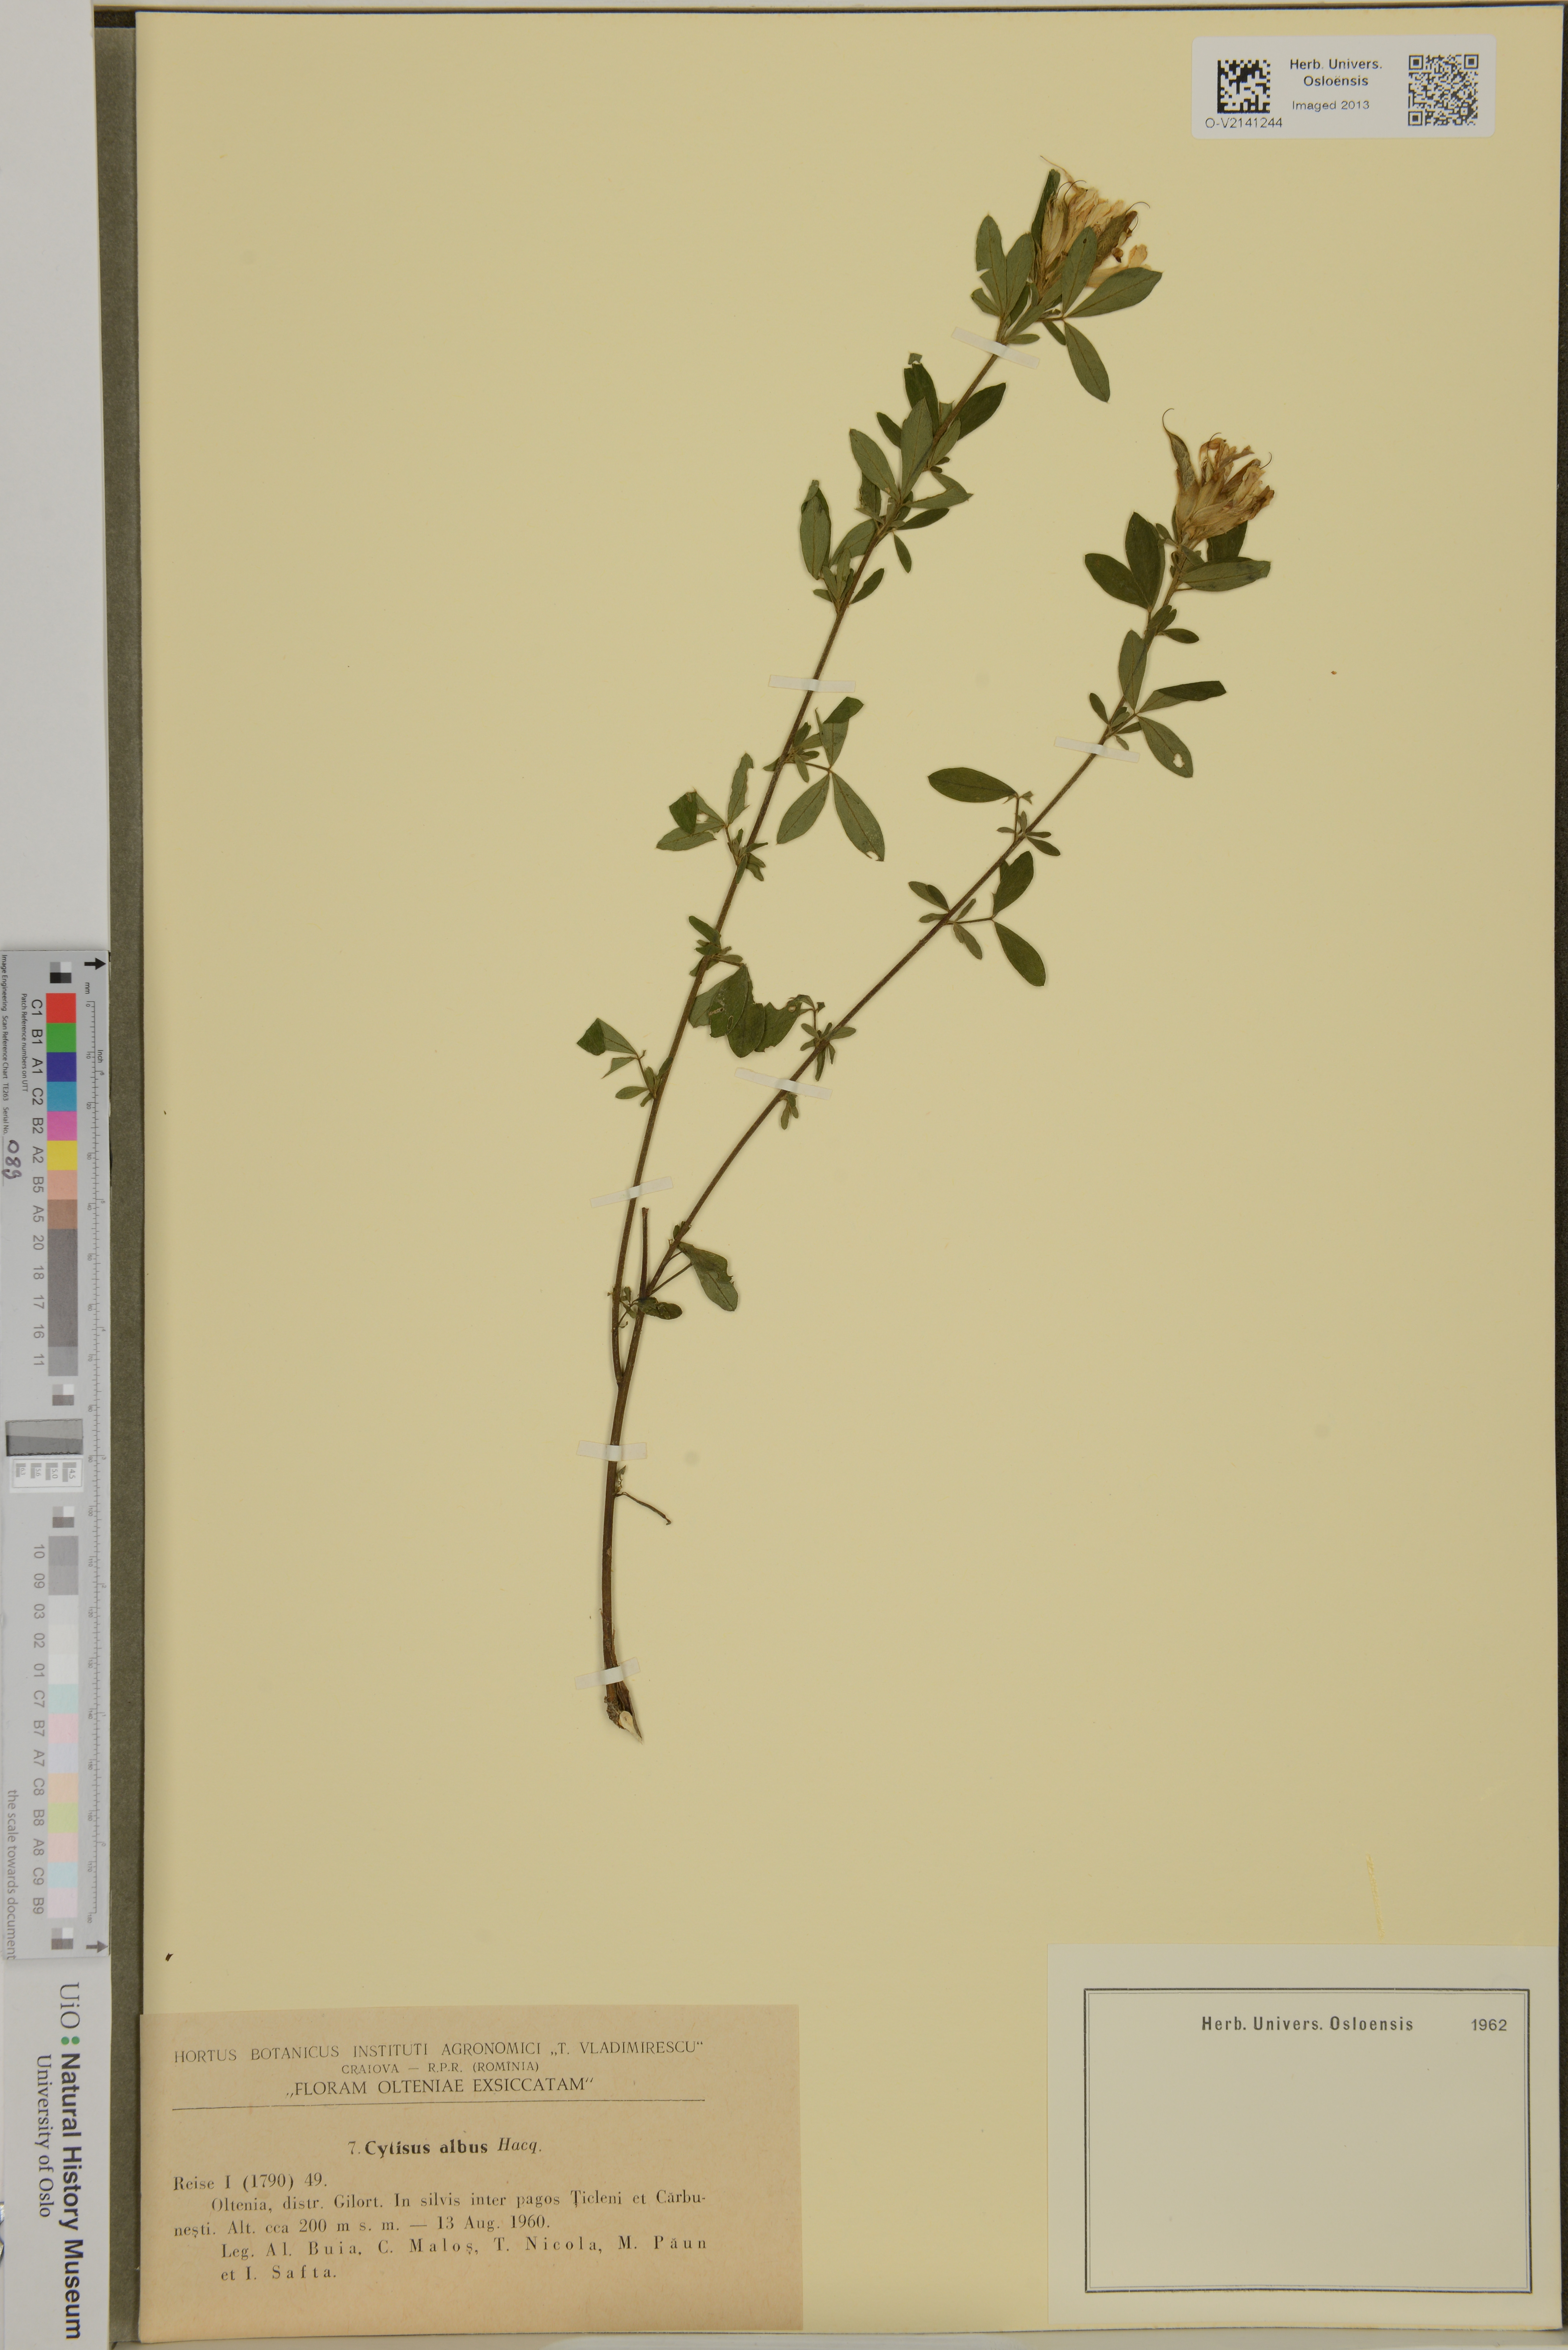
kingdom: Plantae
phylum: Tracheophyta
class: Magnoliopsida
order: Fabales
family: Fabaceae
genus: Cytisus
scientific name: Cytisus multiflorus
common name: White broom
